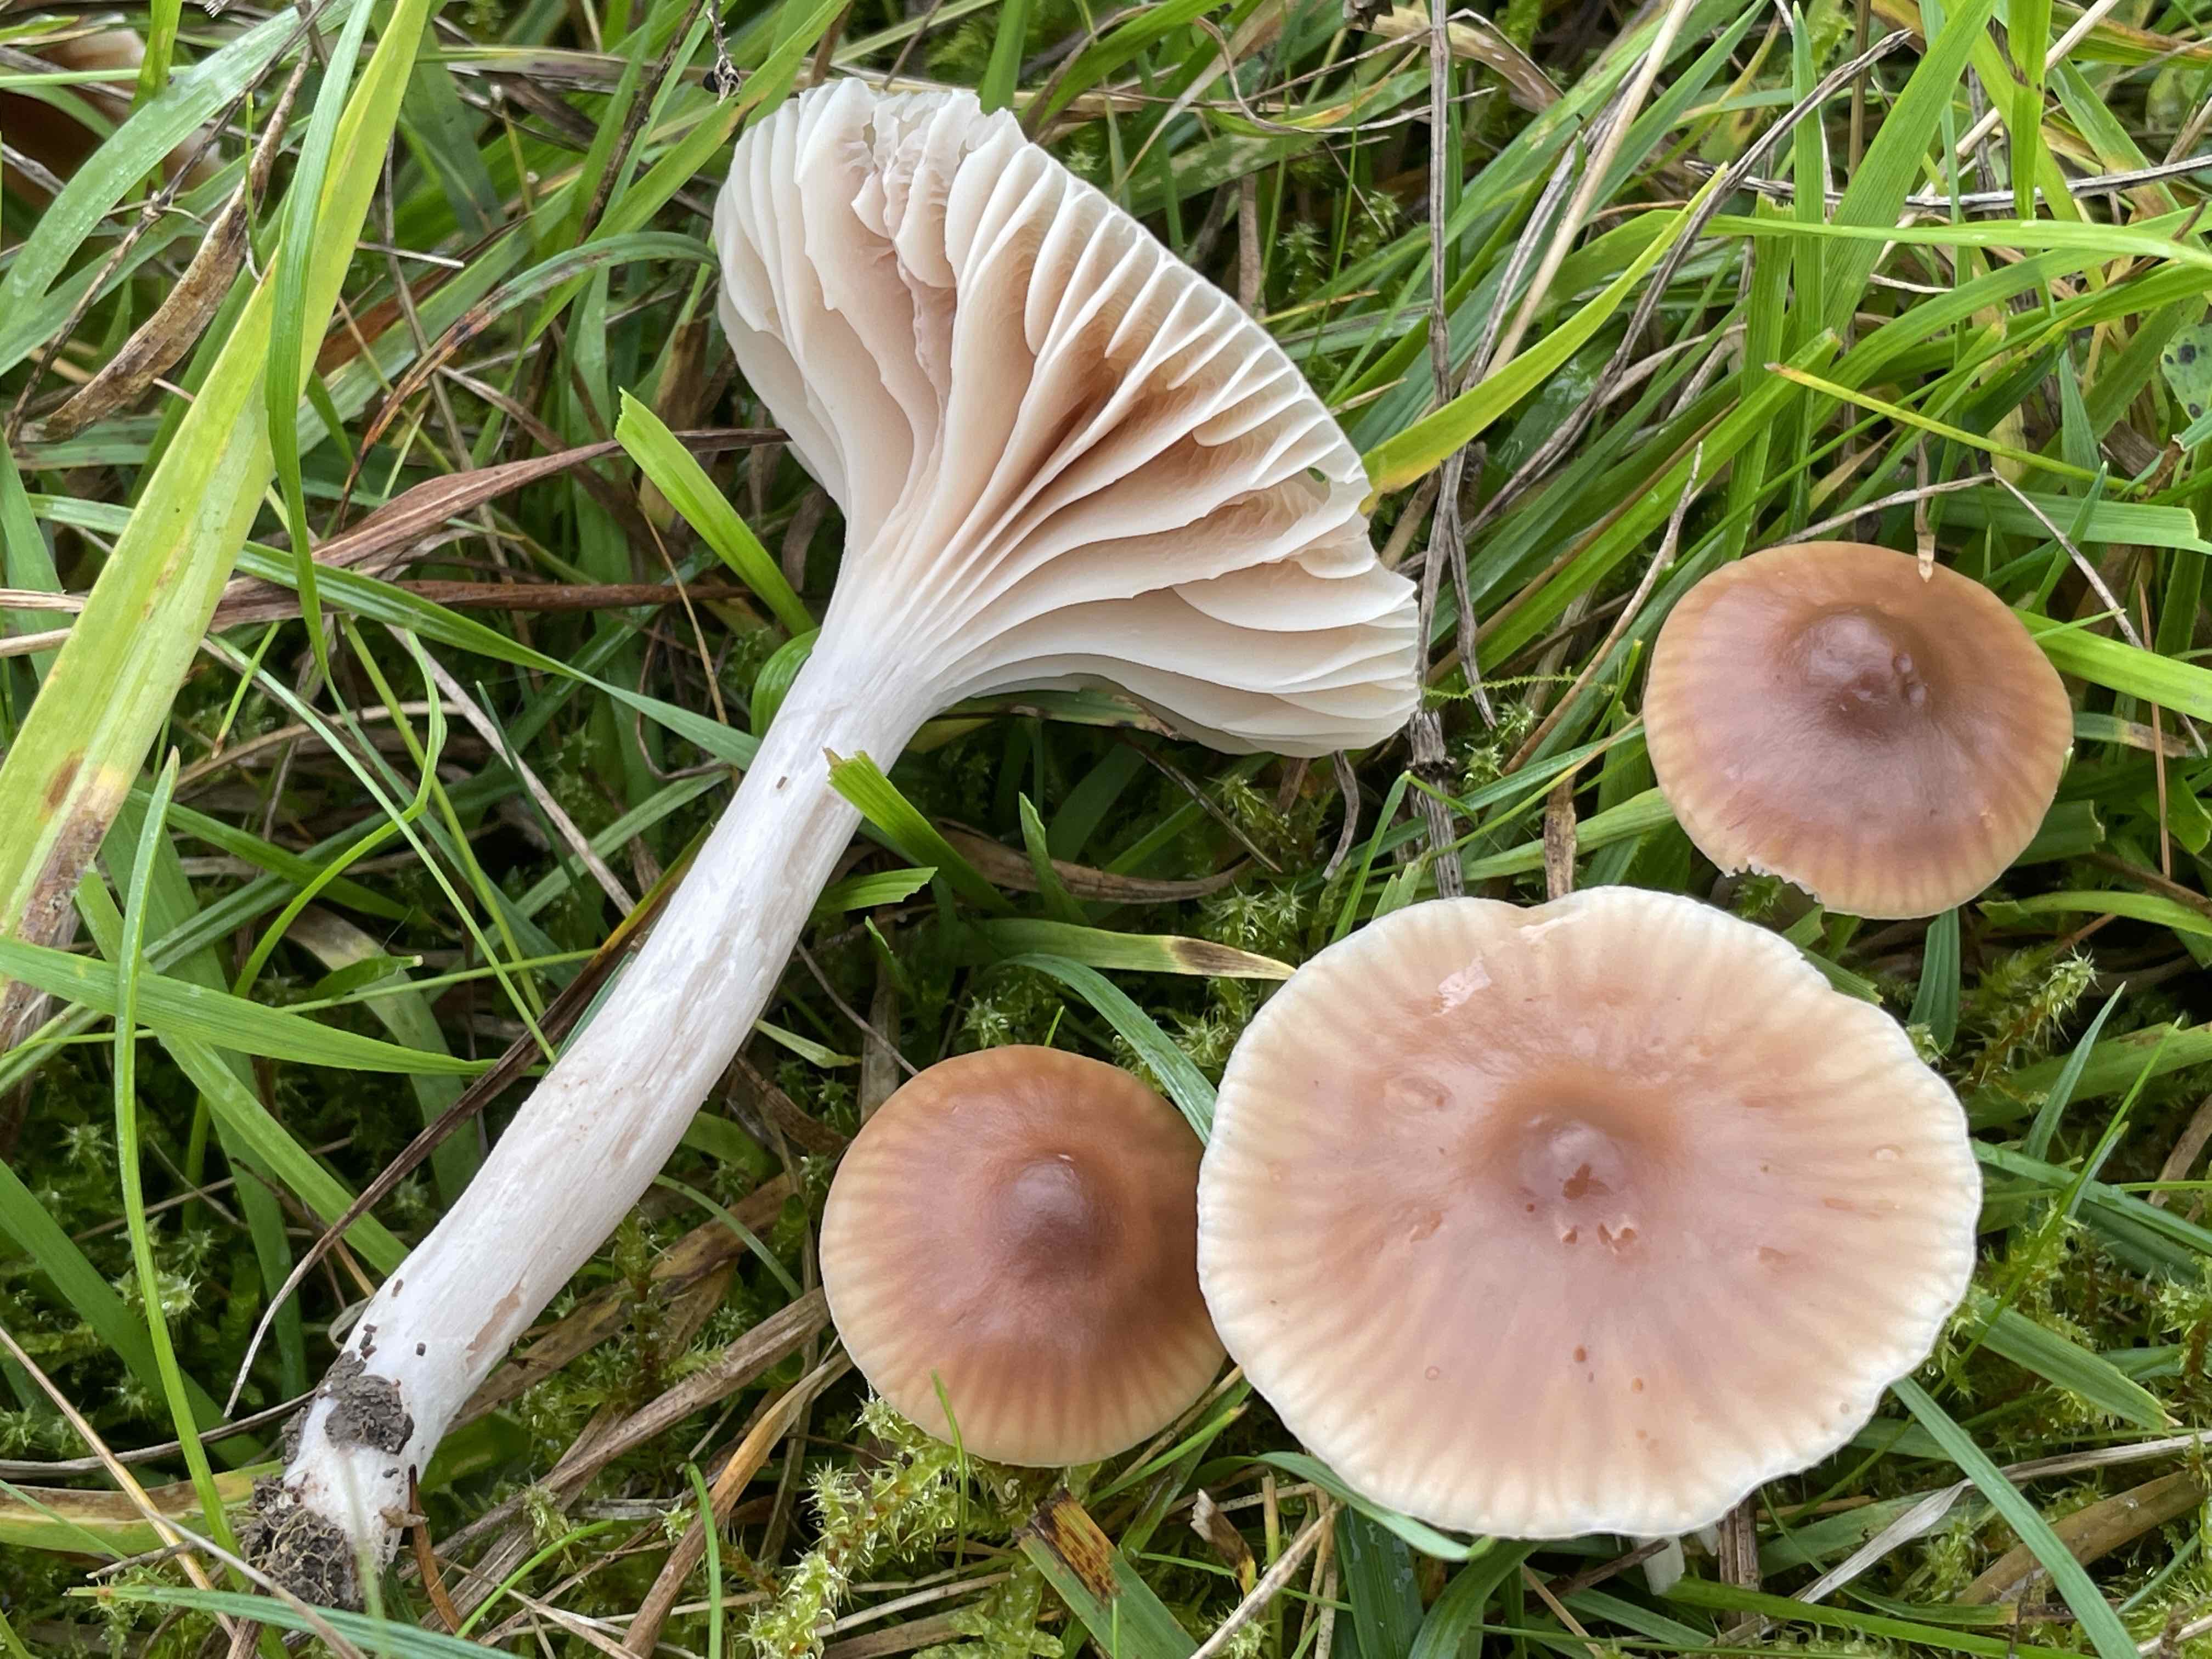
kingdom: Fungi
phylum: Basidiomycota
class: Agaricomycetes
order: Agaricales
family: Hygrophoraceae
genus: Cuphophyllus
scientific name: Cuphophyllus colemannianus
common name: rødbrun vokshat
